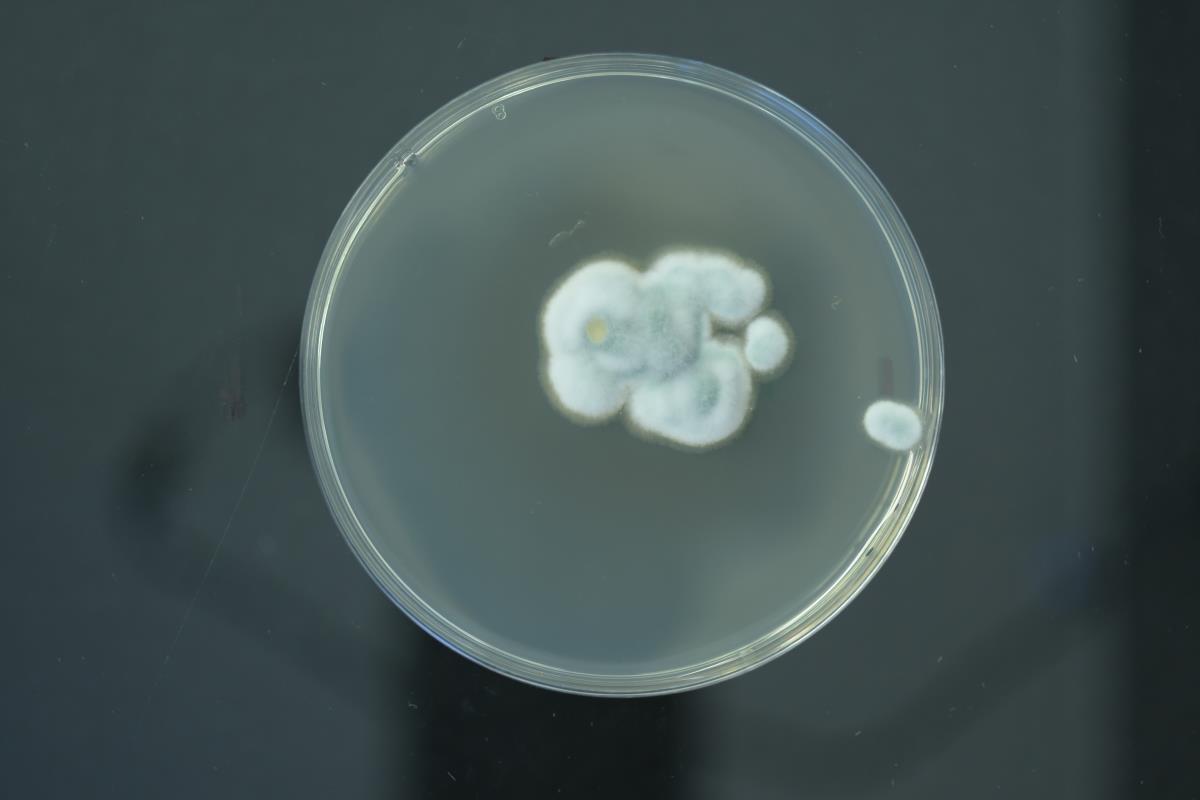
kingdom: Fungi
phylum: Ascomycota
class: Eurotiomycetes
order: Eurotiales
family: Aspergillaceae
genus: Penicillium
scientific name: Penicillium expansum
